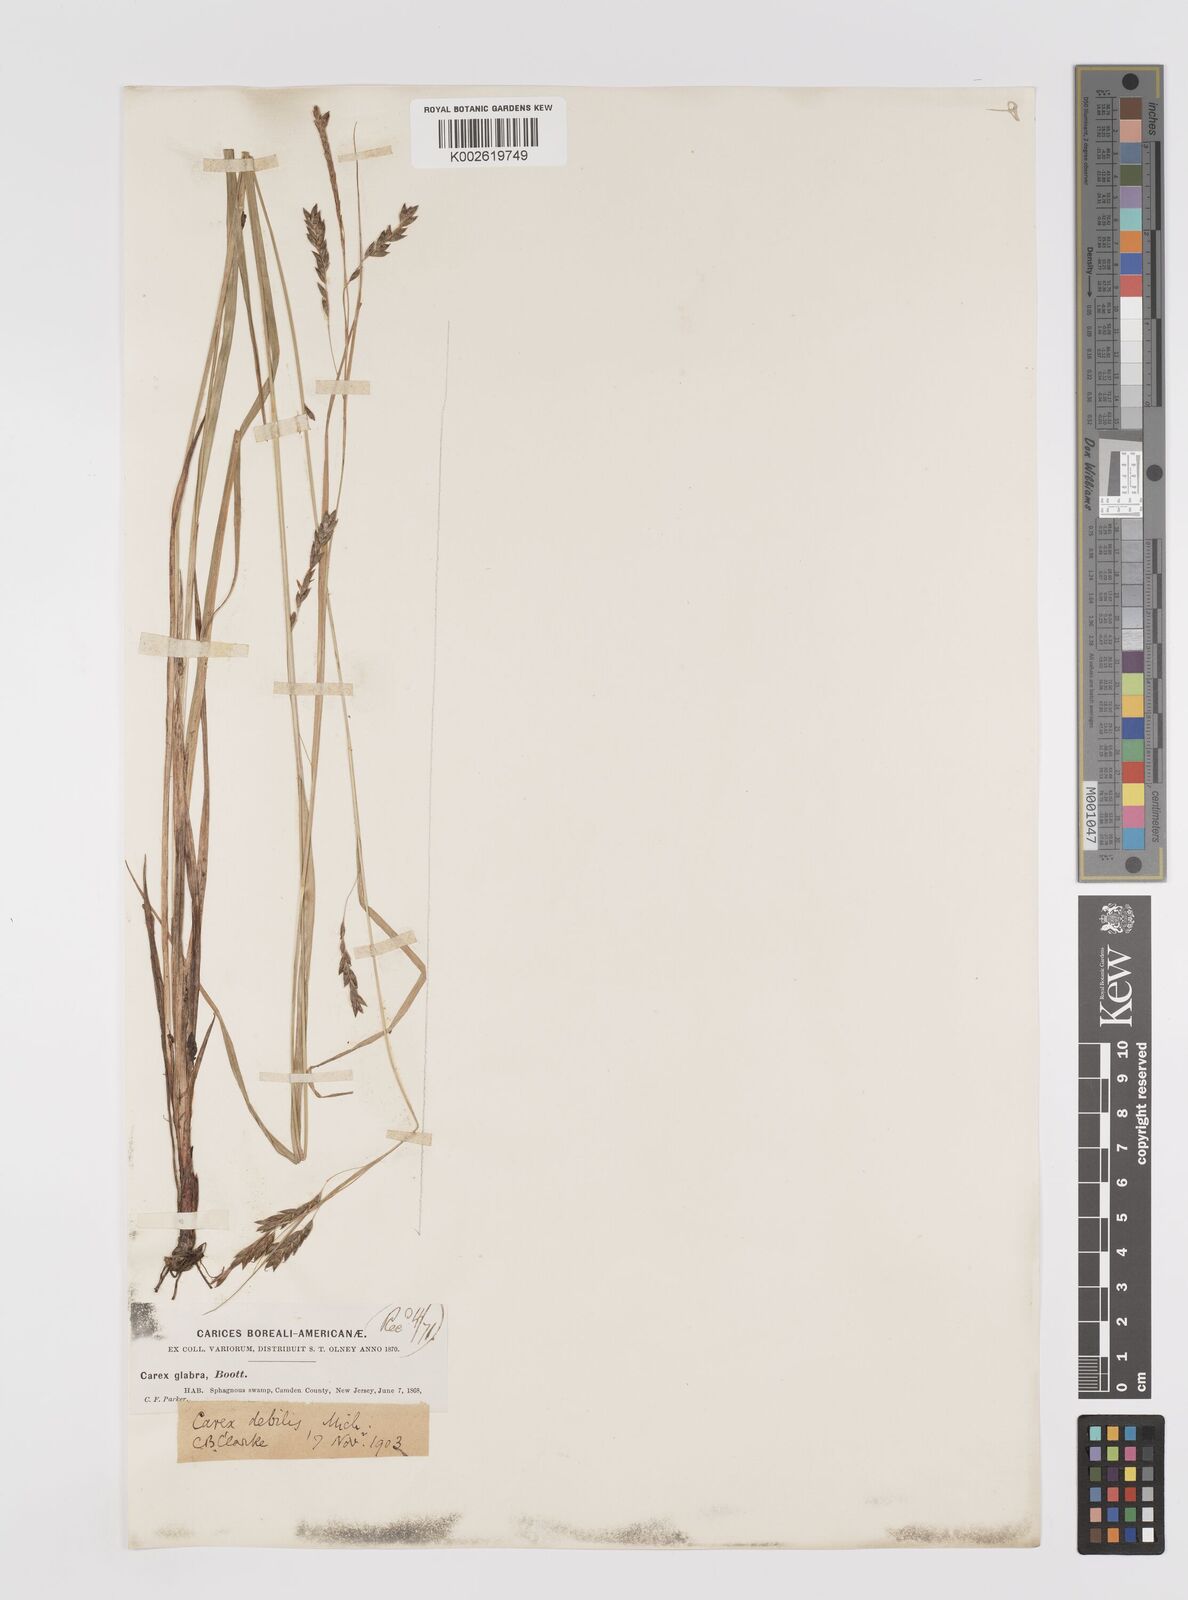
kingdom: Plantae
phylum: Tracheophyta
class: Liliopsida
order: Poales
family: Cyperaceae
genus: Carex
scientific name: Carex venusta
